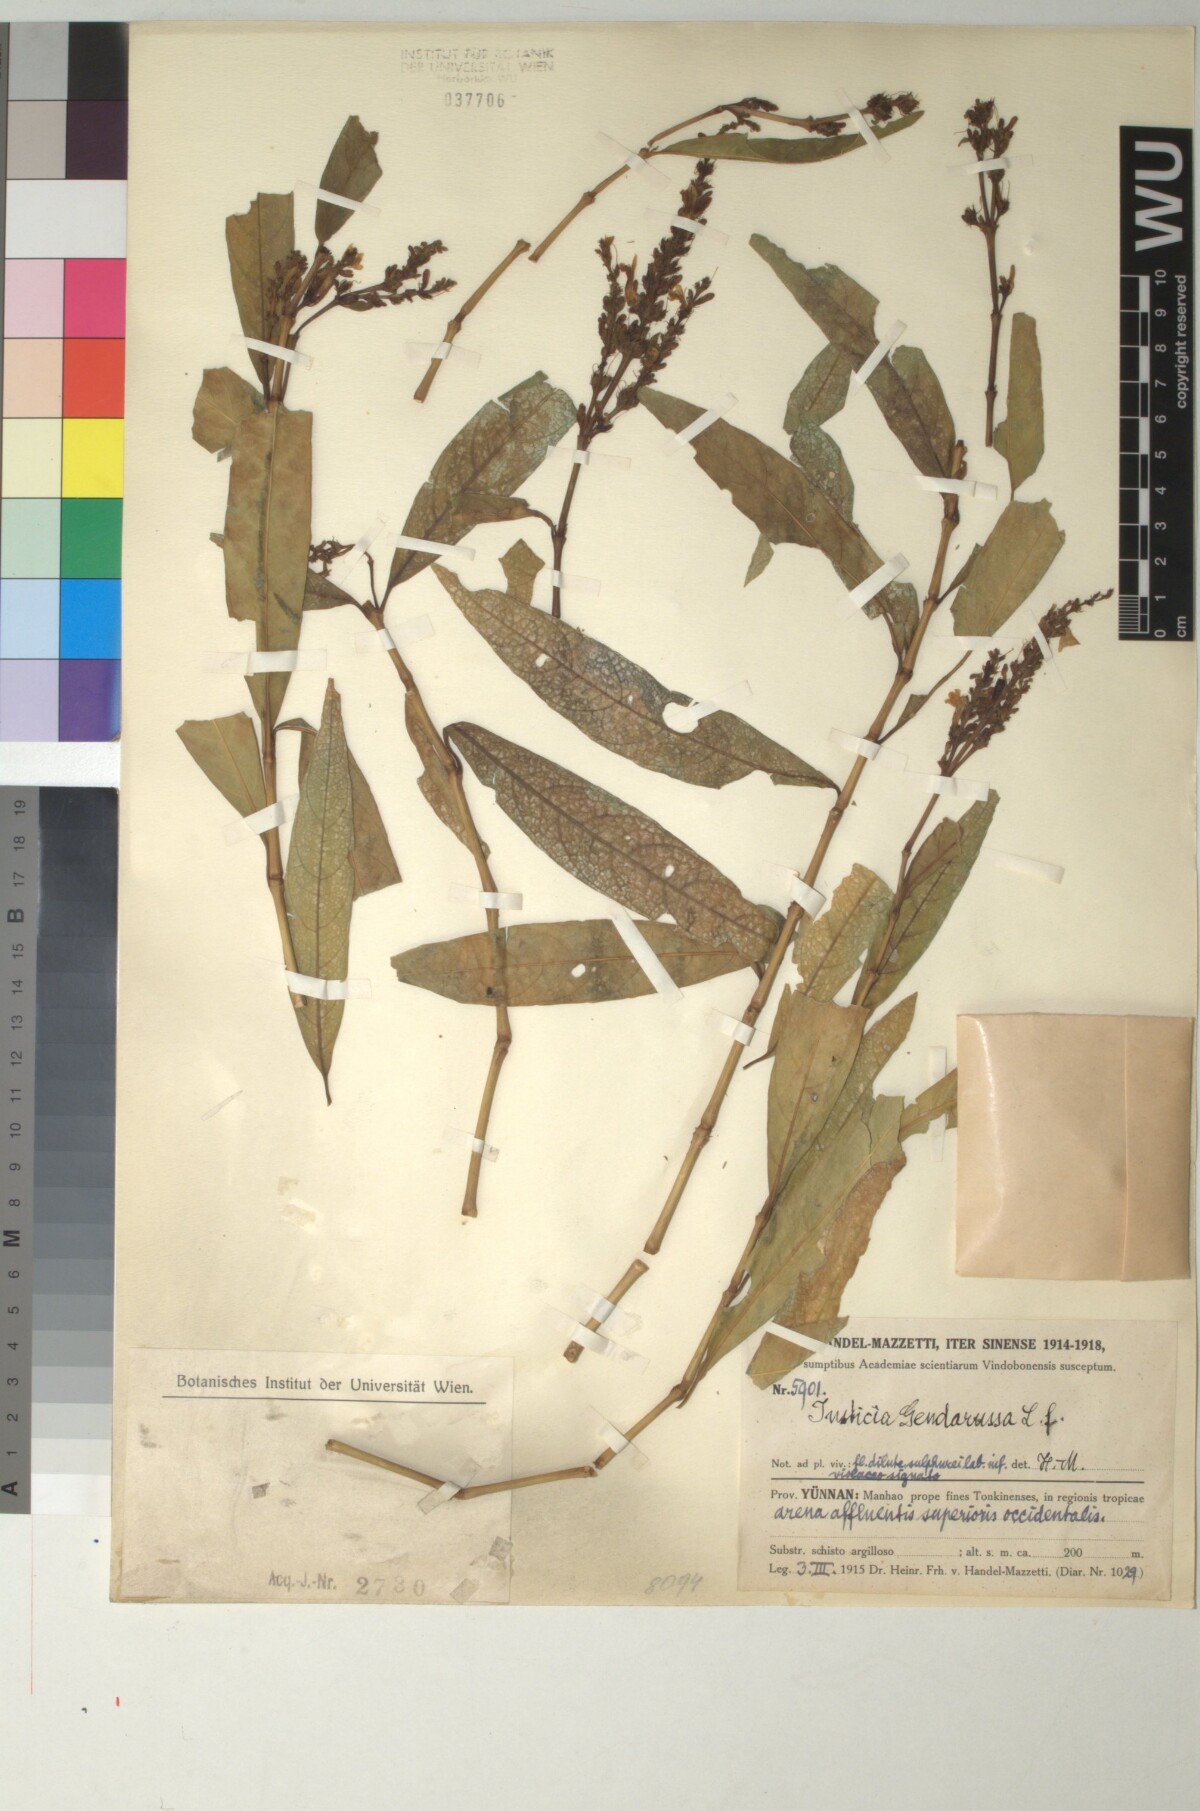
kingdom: Plantae
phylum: Tracheophyta
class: Magnoliopsida
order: Lamiales
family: Acanthaceae
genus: Justicia
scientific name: Justicia gendarussa
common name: Warer willow
